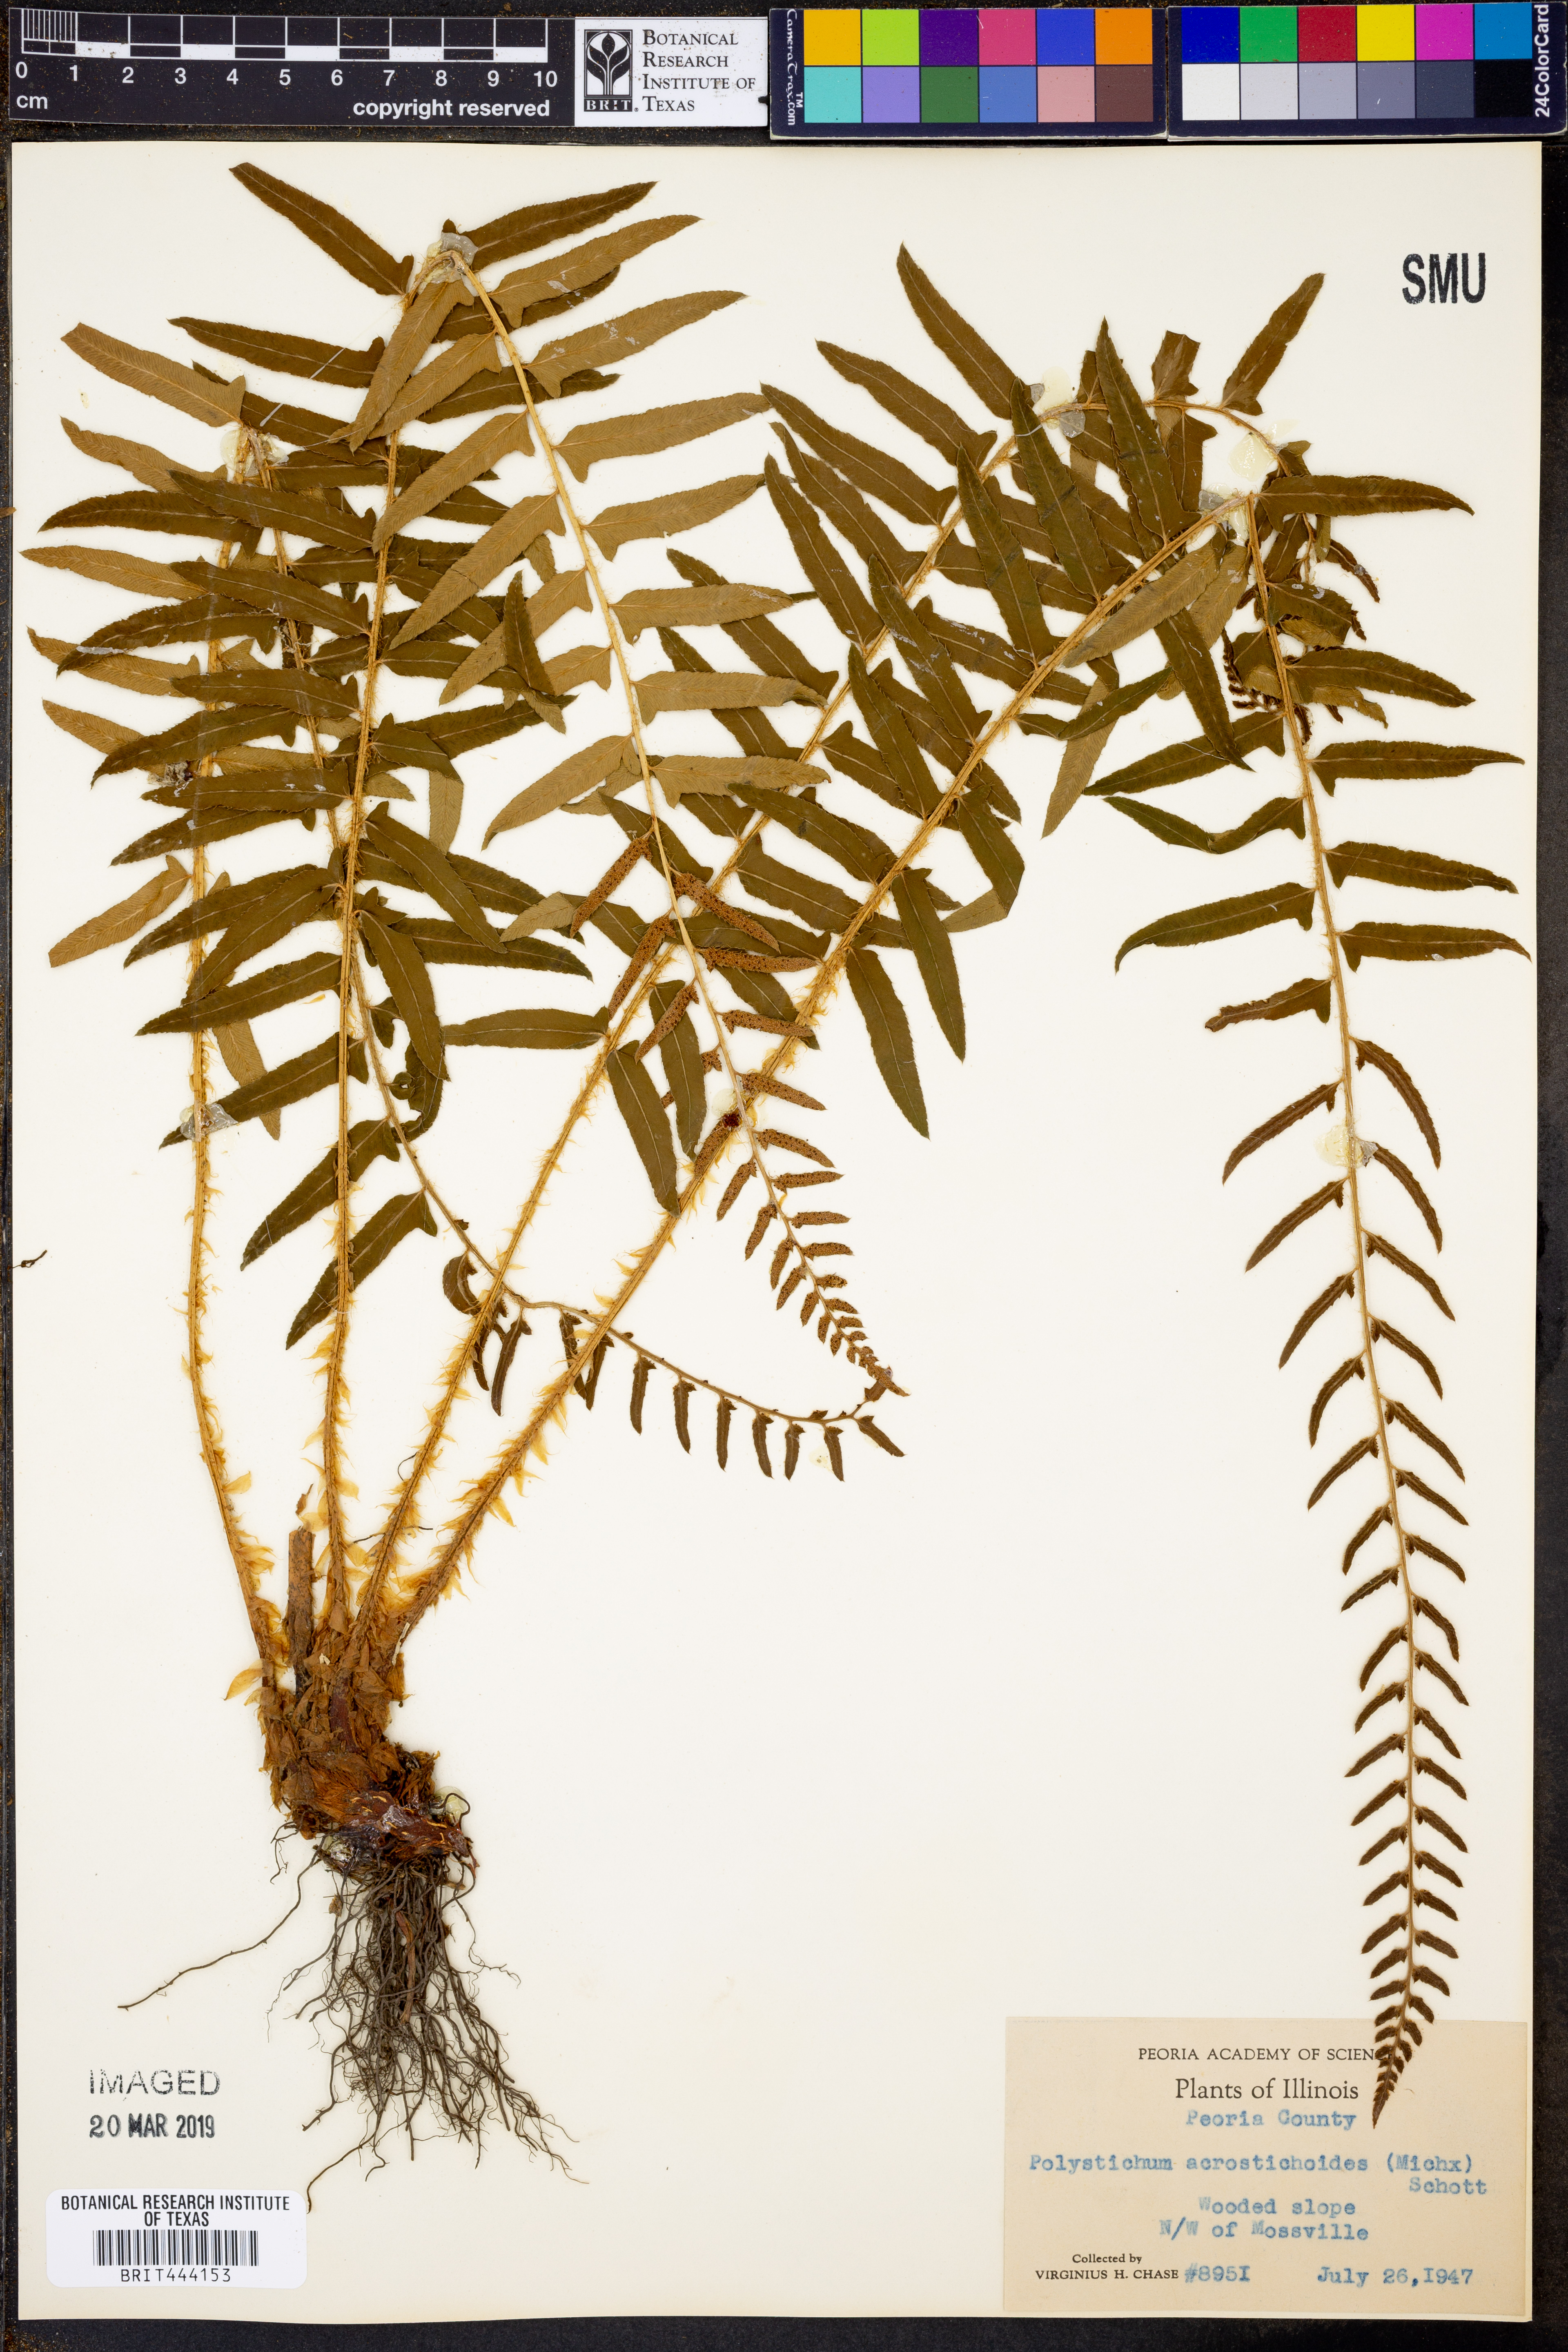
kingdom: Plantae
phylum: Tracheophyta
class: Polypodiopsida
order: Polypodiales
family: Dryopteridaceae
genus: Polystichum
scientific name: Polystichum acrostichoides
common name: Christmas fern
